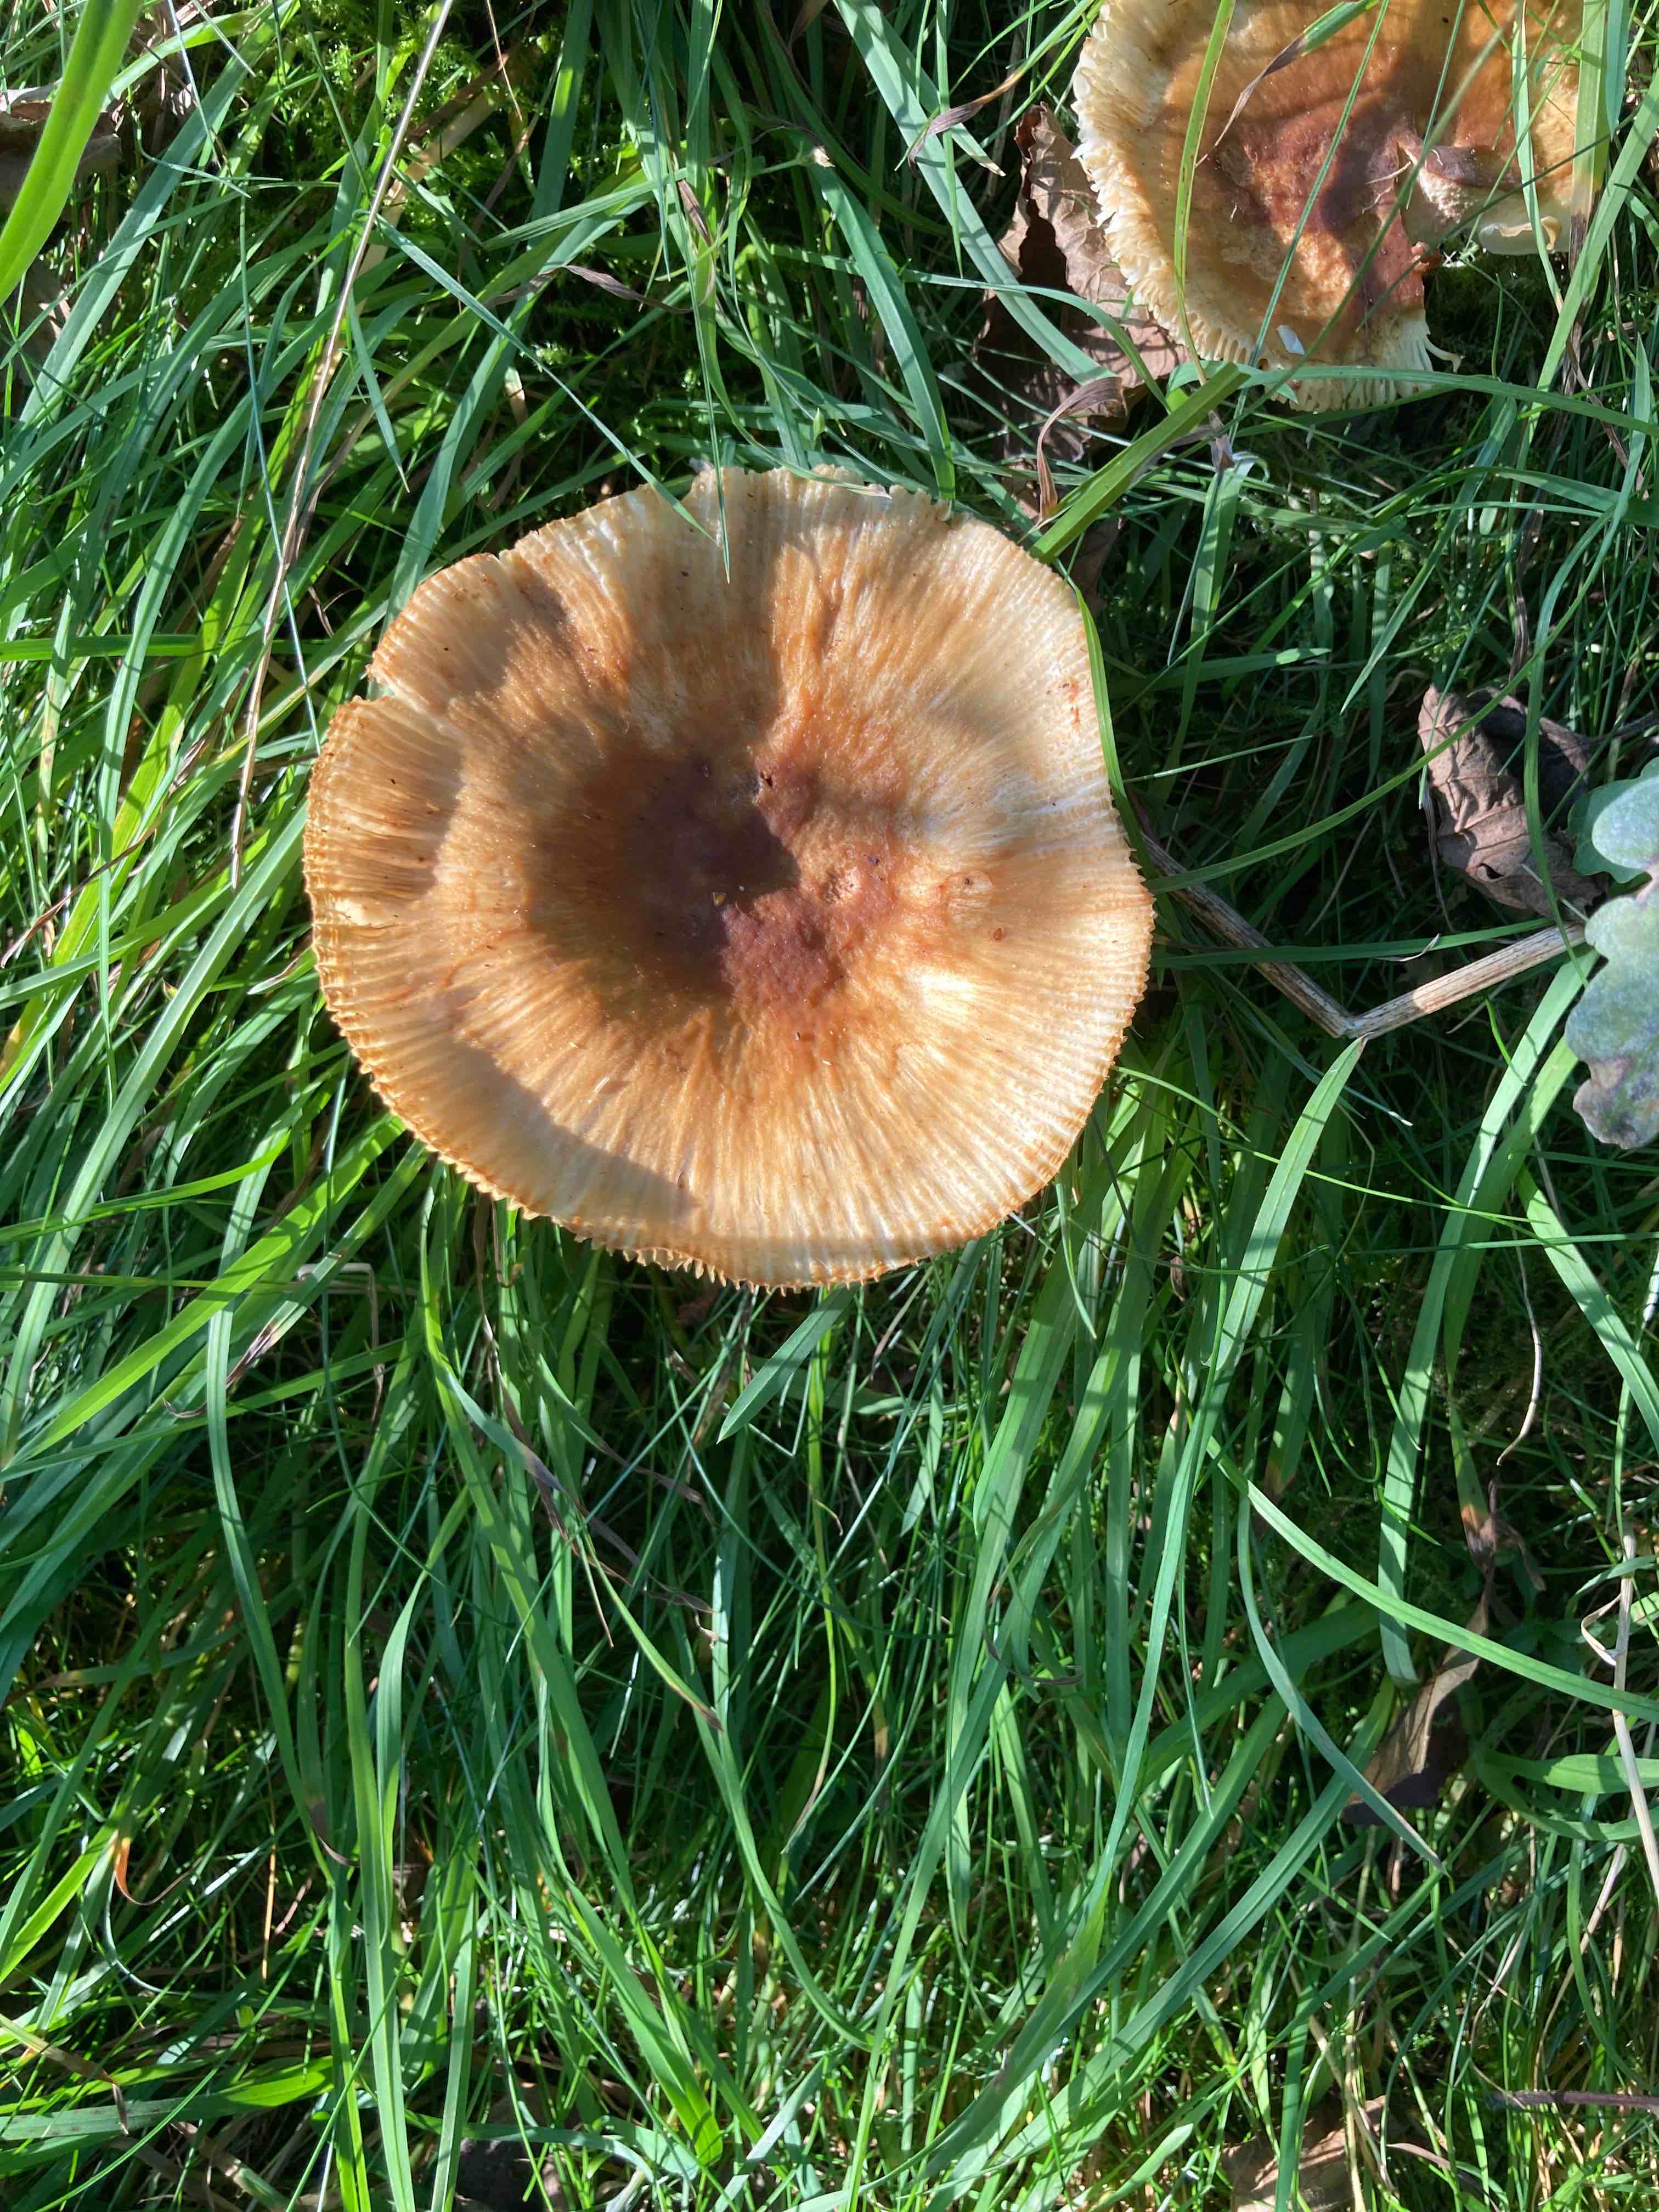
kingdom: Fungi
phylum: Basidiomycota
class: Agaricomycetes
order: Russulales
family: Russulaceae
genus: Russula
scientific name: Russula foetens
